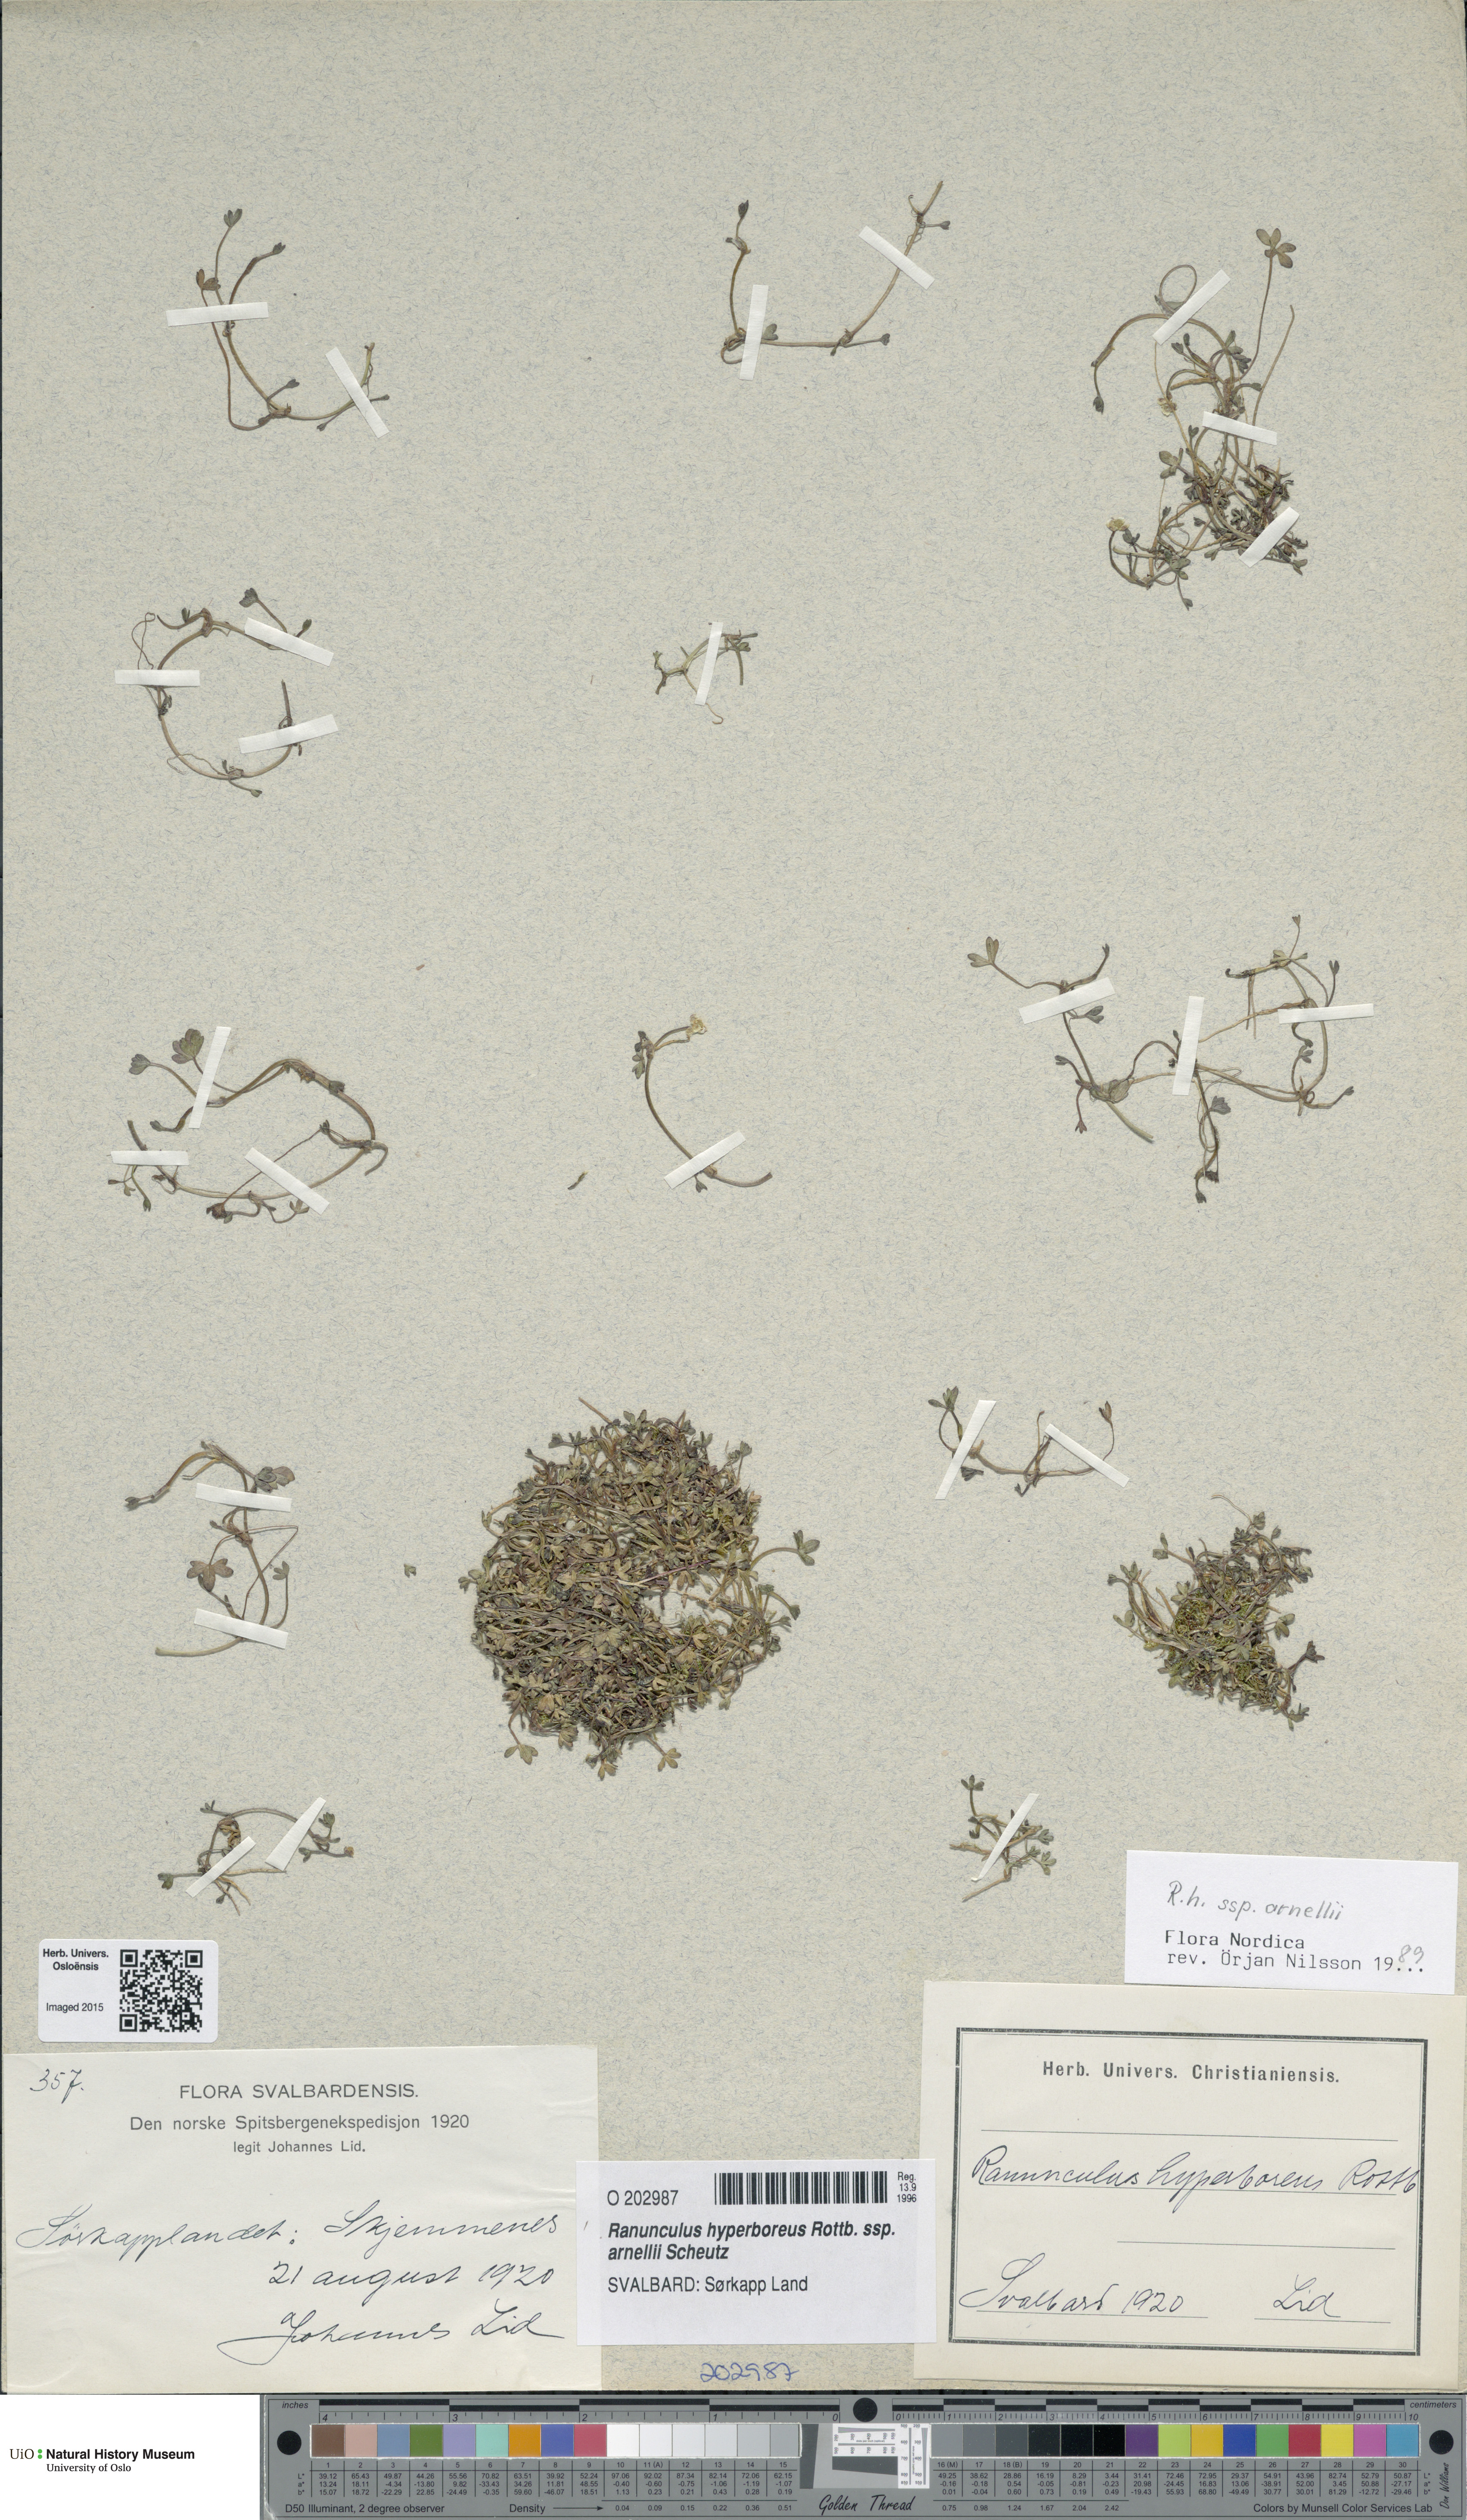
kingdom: Plantae
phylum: Tracheophyta
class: Magnoliopsida
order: Ranunculales
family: Ranunculaceae
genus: Ranunculus
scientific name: Ranunculus hyperboreus
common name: Arctic buttercup
